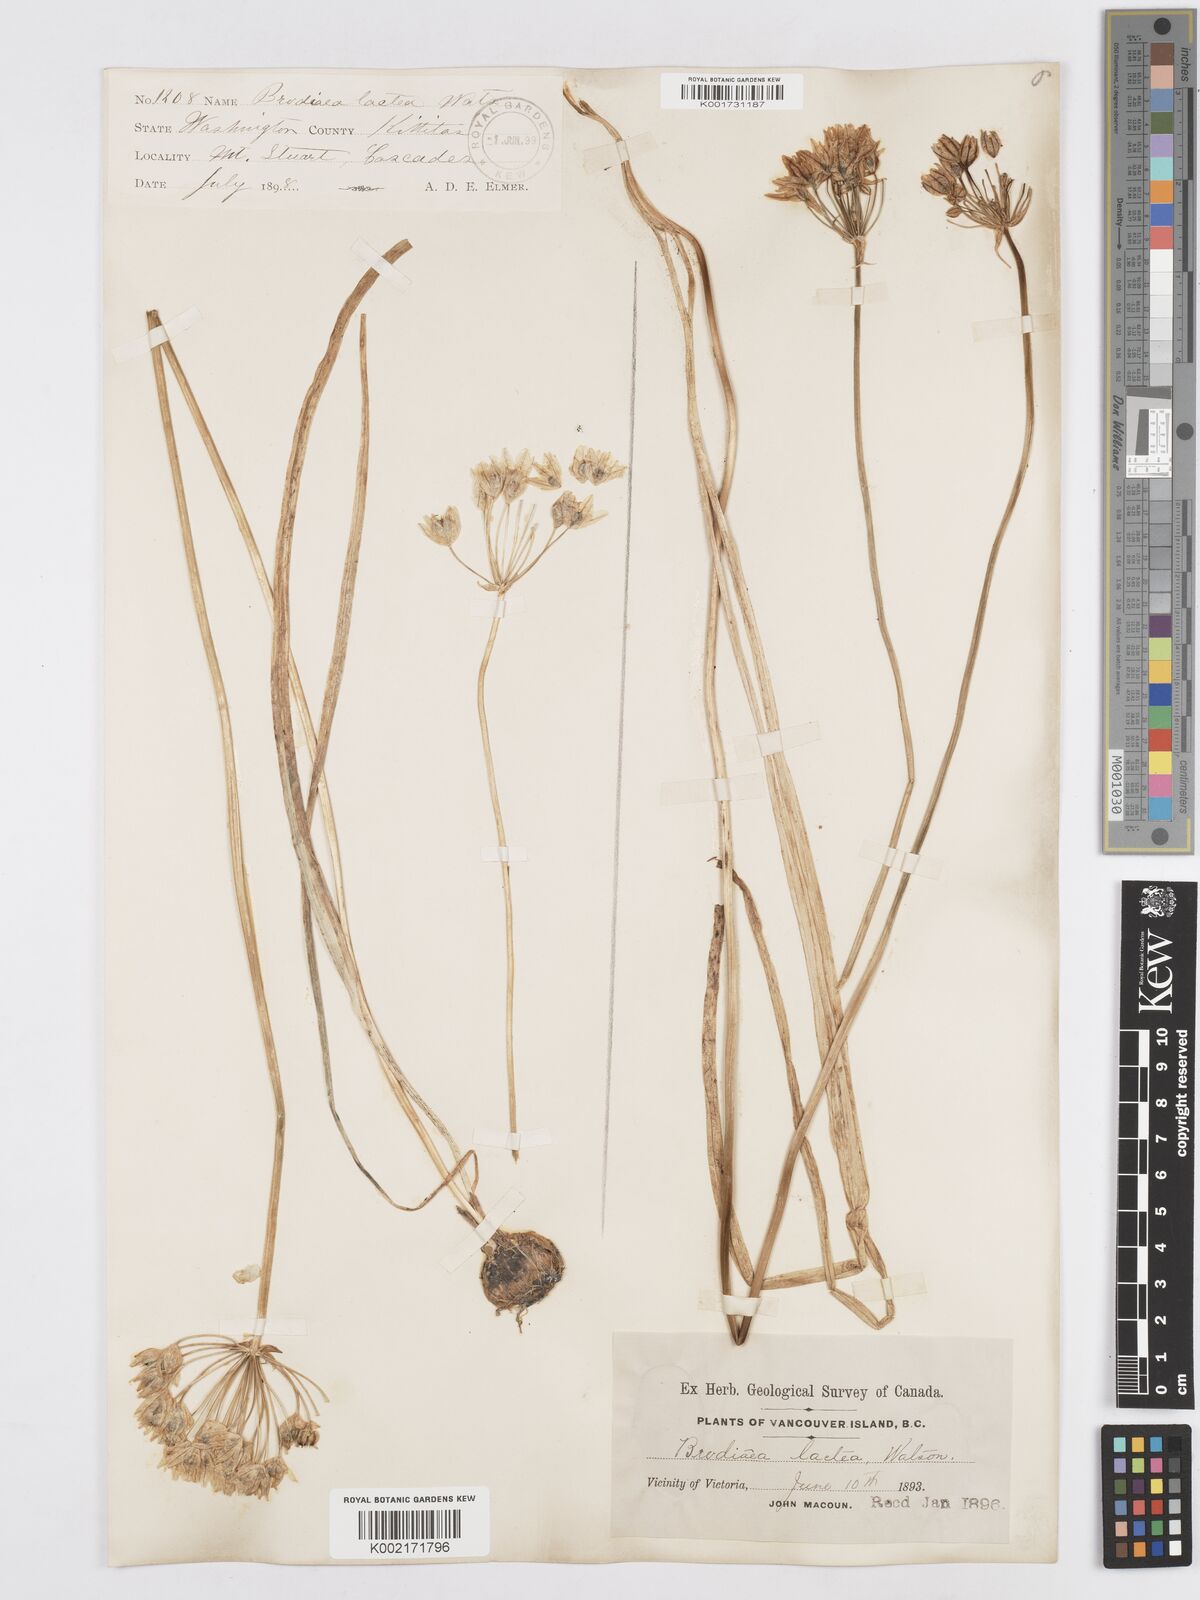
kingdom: Plantae
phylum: Tracheophyta
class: Liliopsida
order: Asparagales
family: Asparagaceae
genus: Triteleia
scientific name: Triteleia hyacinthina
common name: White brodiaea
